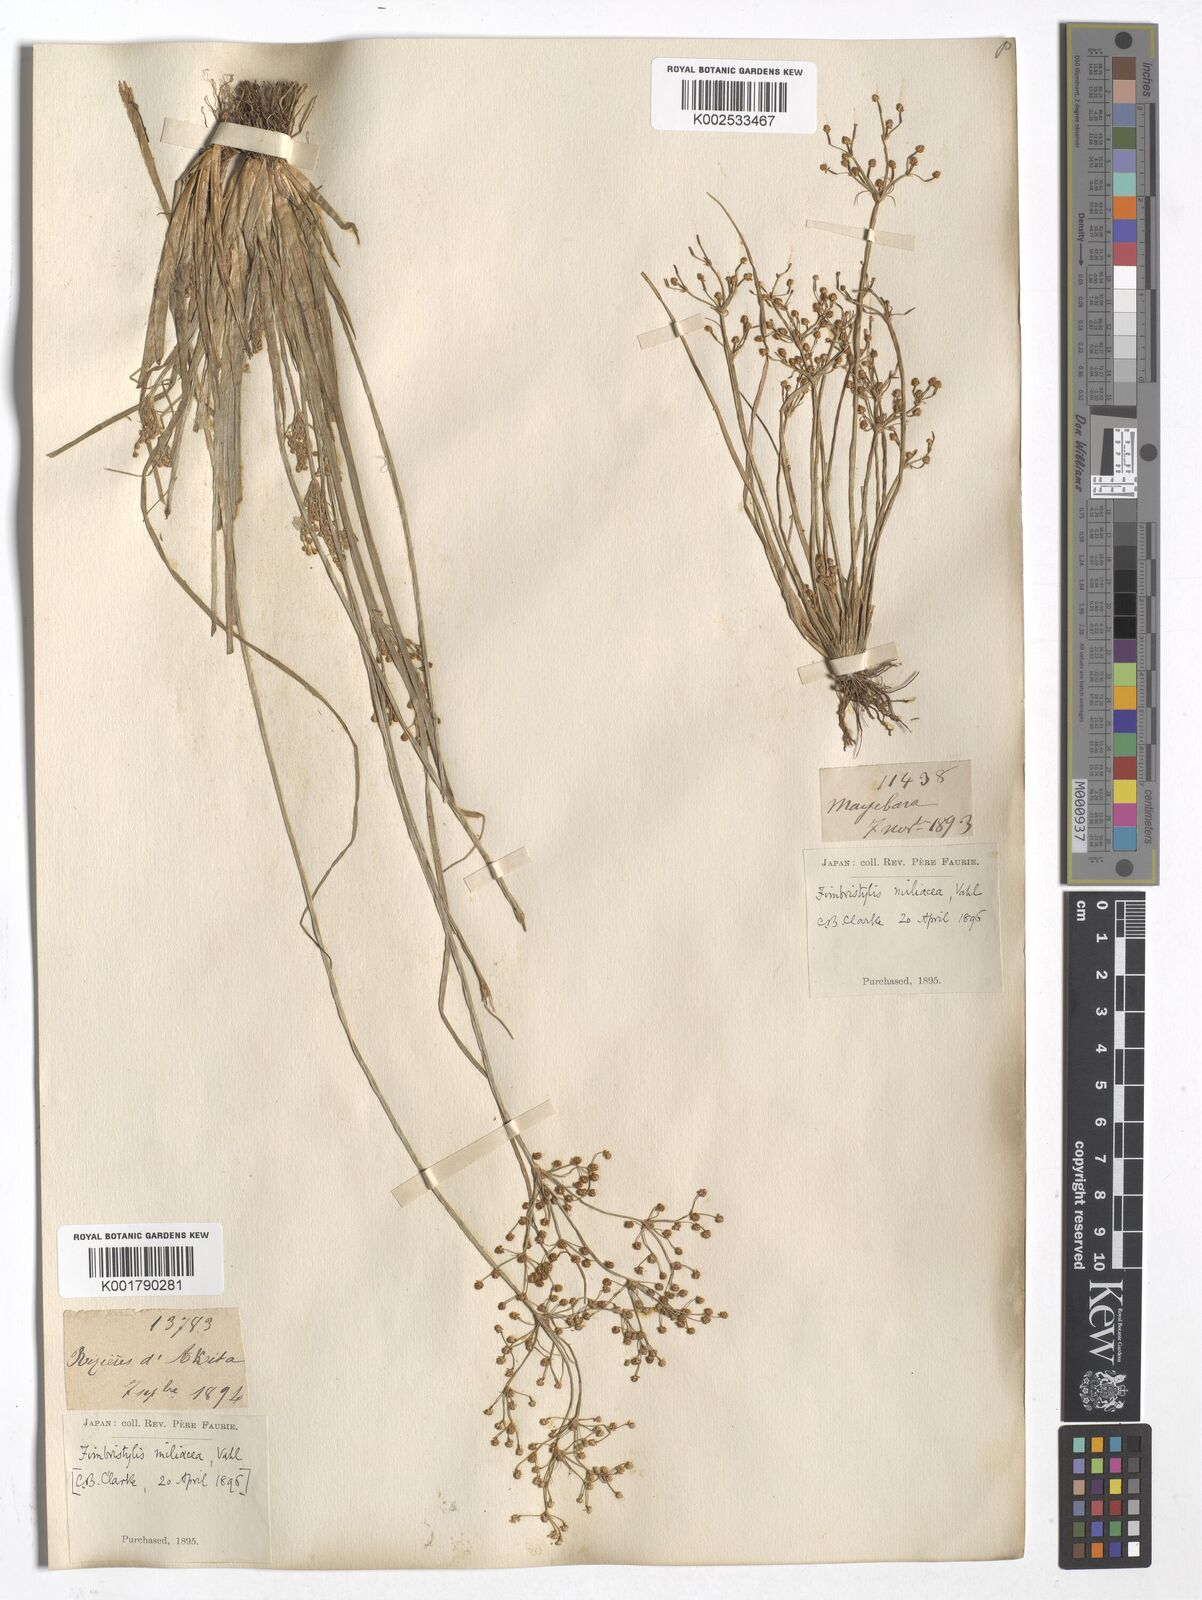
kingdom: Plantae
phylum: Tracheophyta
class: Liliopsida
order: Poales
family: Cyperaceae
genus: Fimbristylis
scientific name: Fimbristylis quinquangularis
